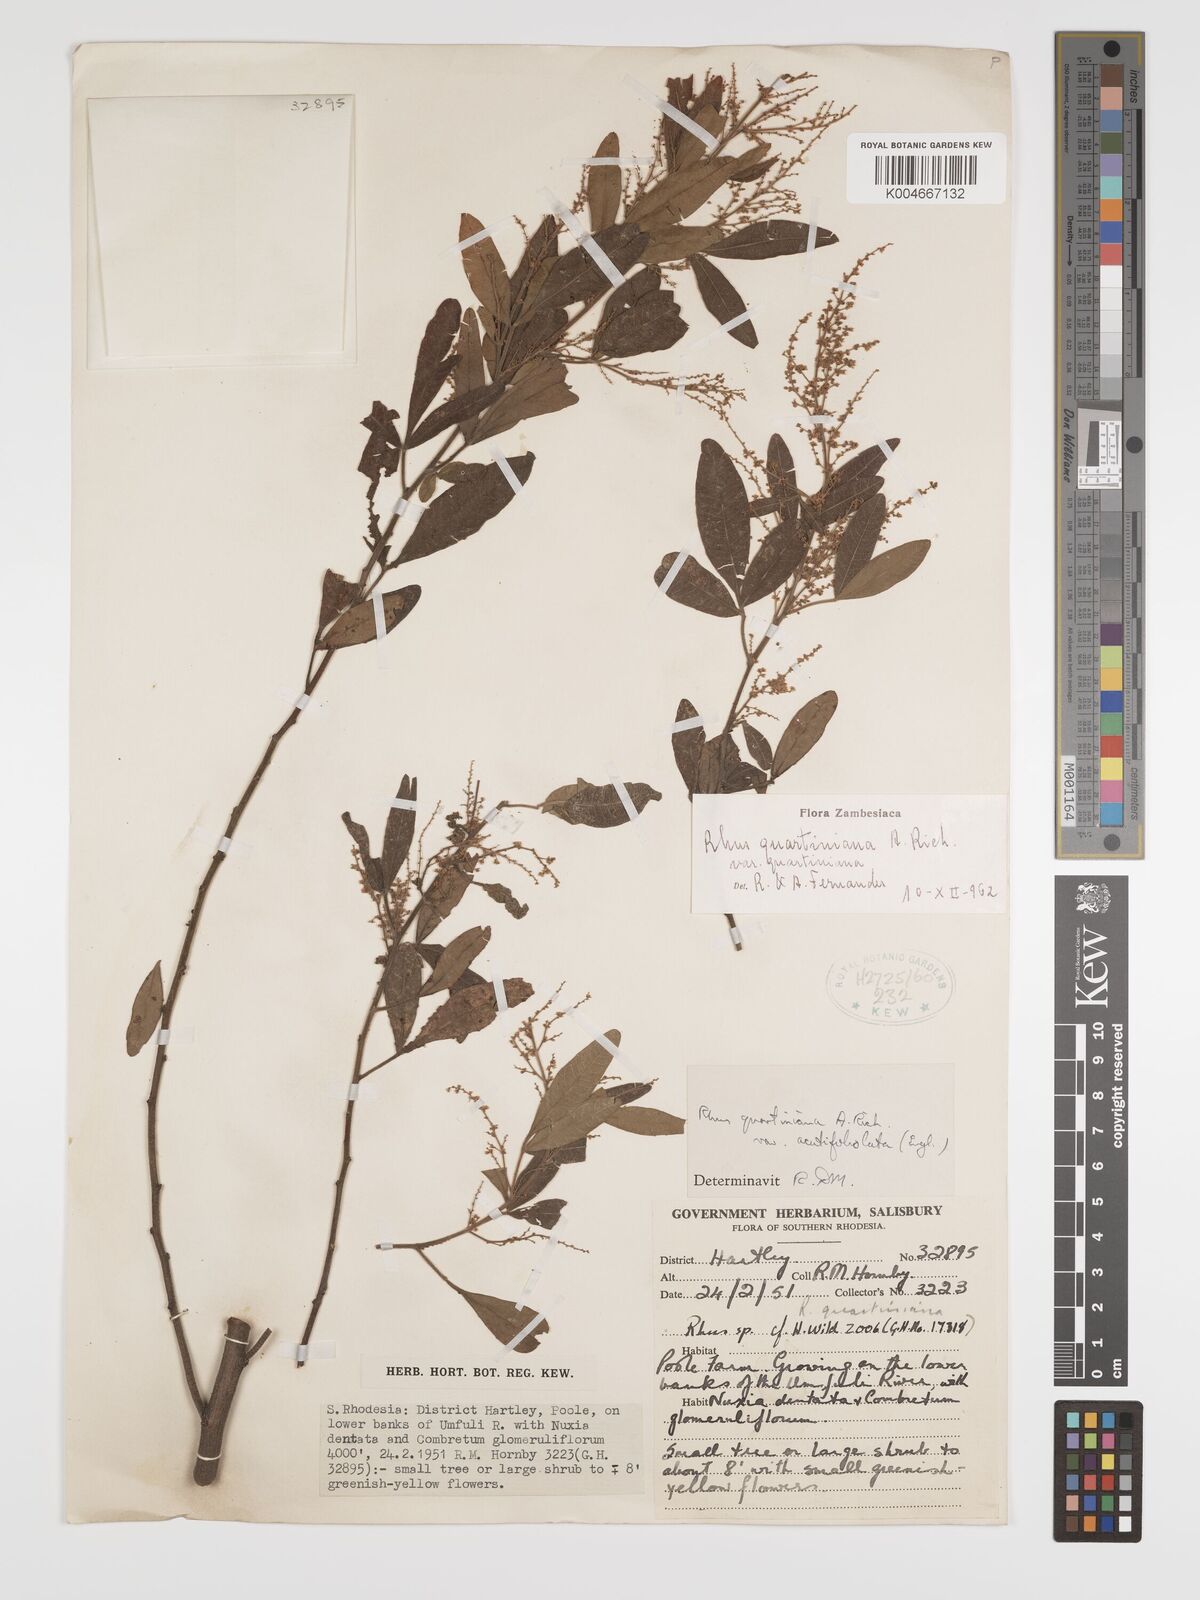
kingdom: Plantae
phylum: Tracheophyta
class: Magnoliopsida
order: Sapindales
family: Anacardiaceae
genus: Searsia
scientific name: Searsia quartiniana
